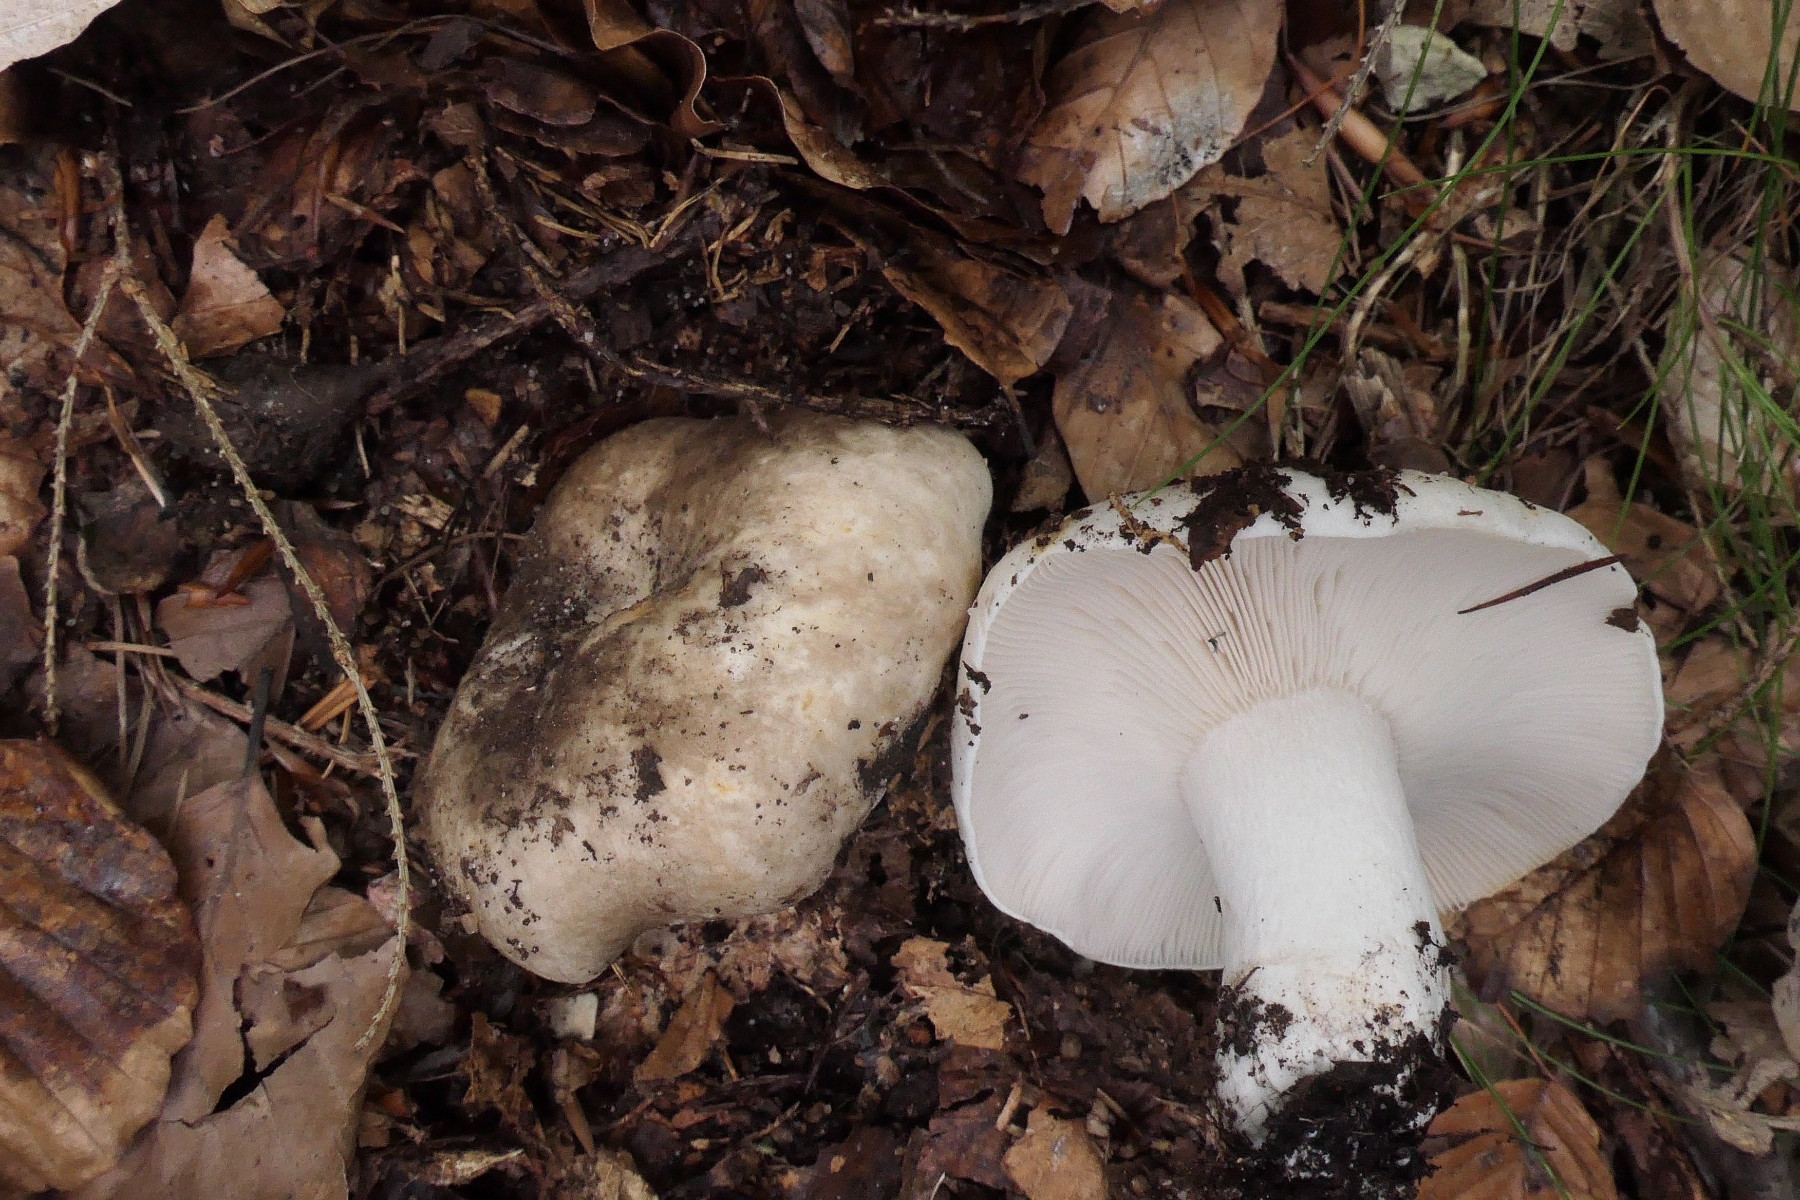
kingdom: Fungi
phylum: Basidiomycota
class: Agaricomycetes
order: Russulales
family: Russulaceae
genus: Russula
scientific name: Russula densifolia
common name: tætbladet skørhat
